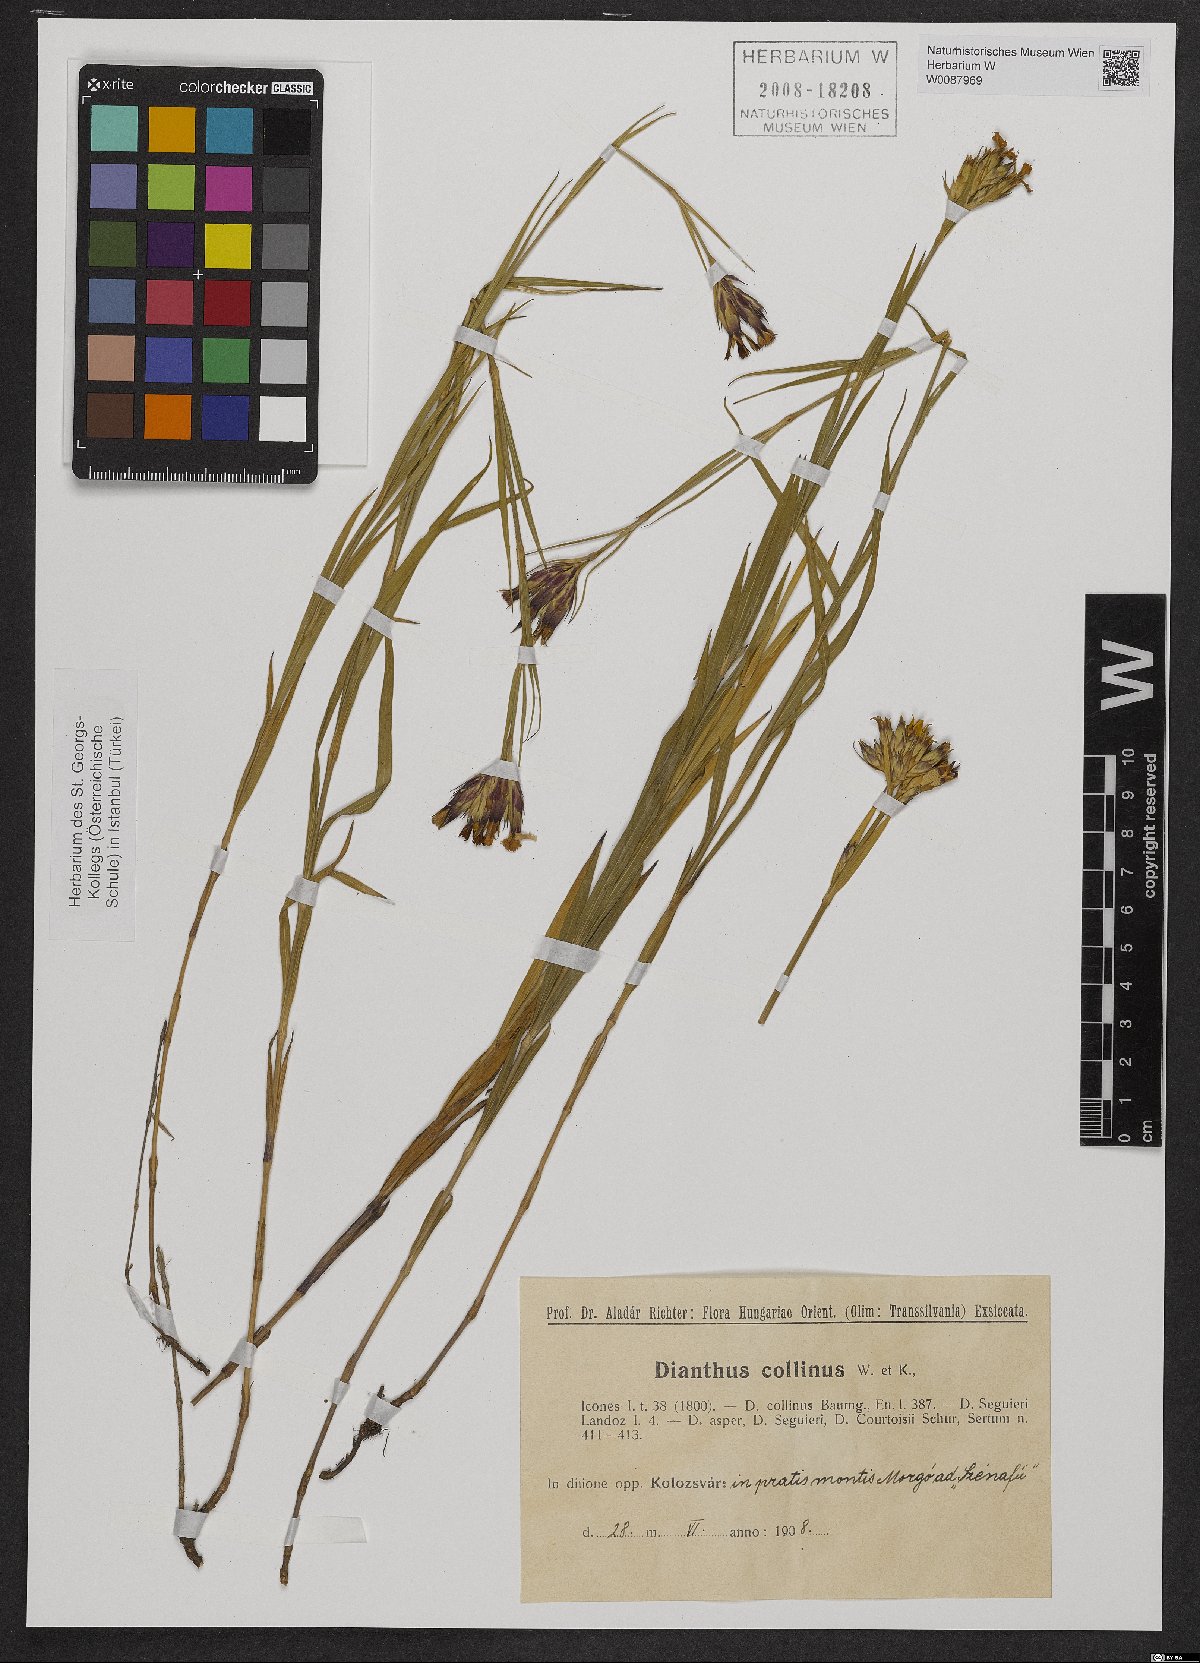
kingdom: Plantae
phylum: Tracheophyta
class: Magnoliopsida
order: Caryophyllales
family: Caryophyllaceae
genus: Dianthus
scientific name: Dianthus collinus
